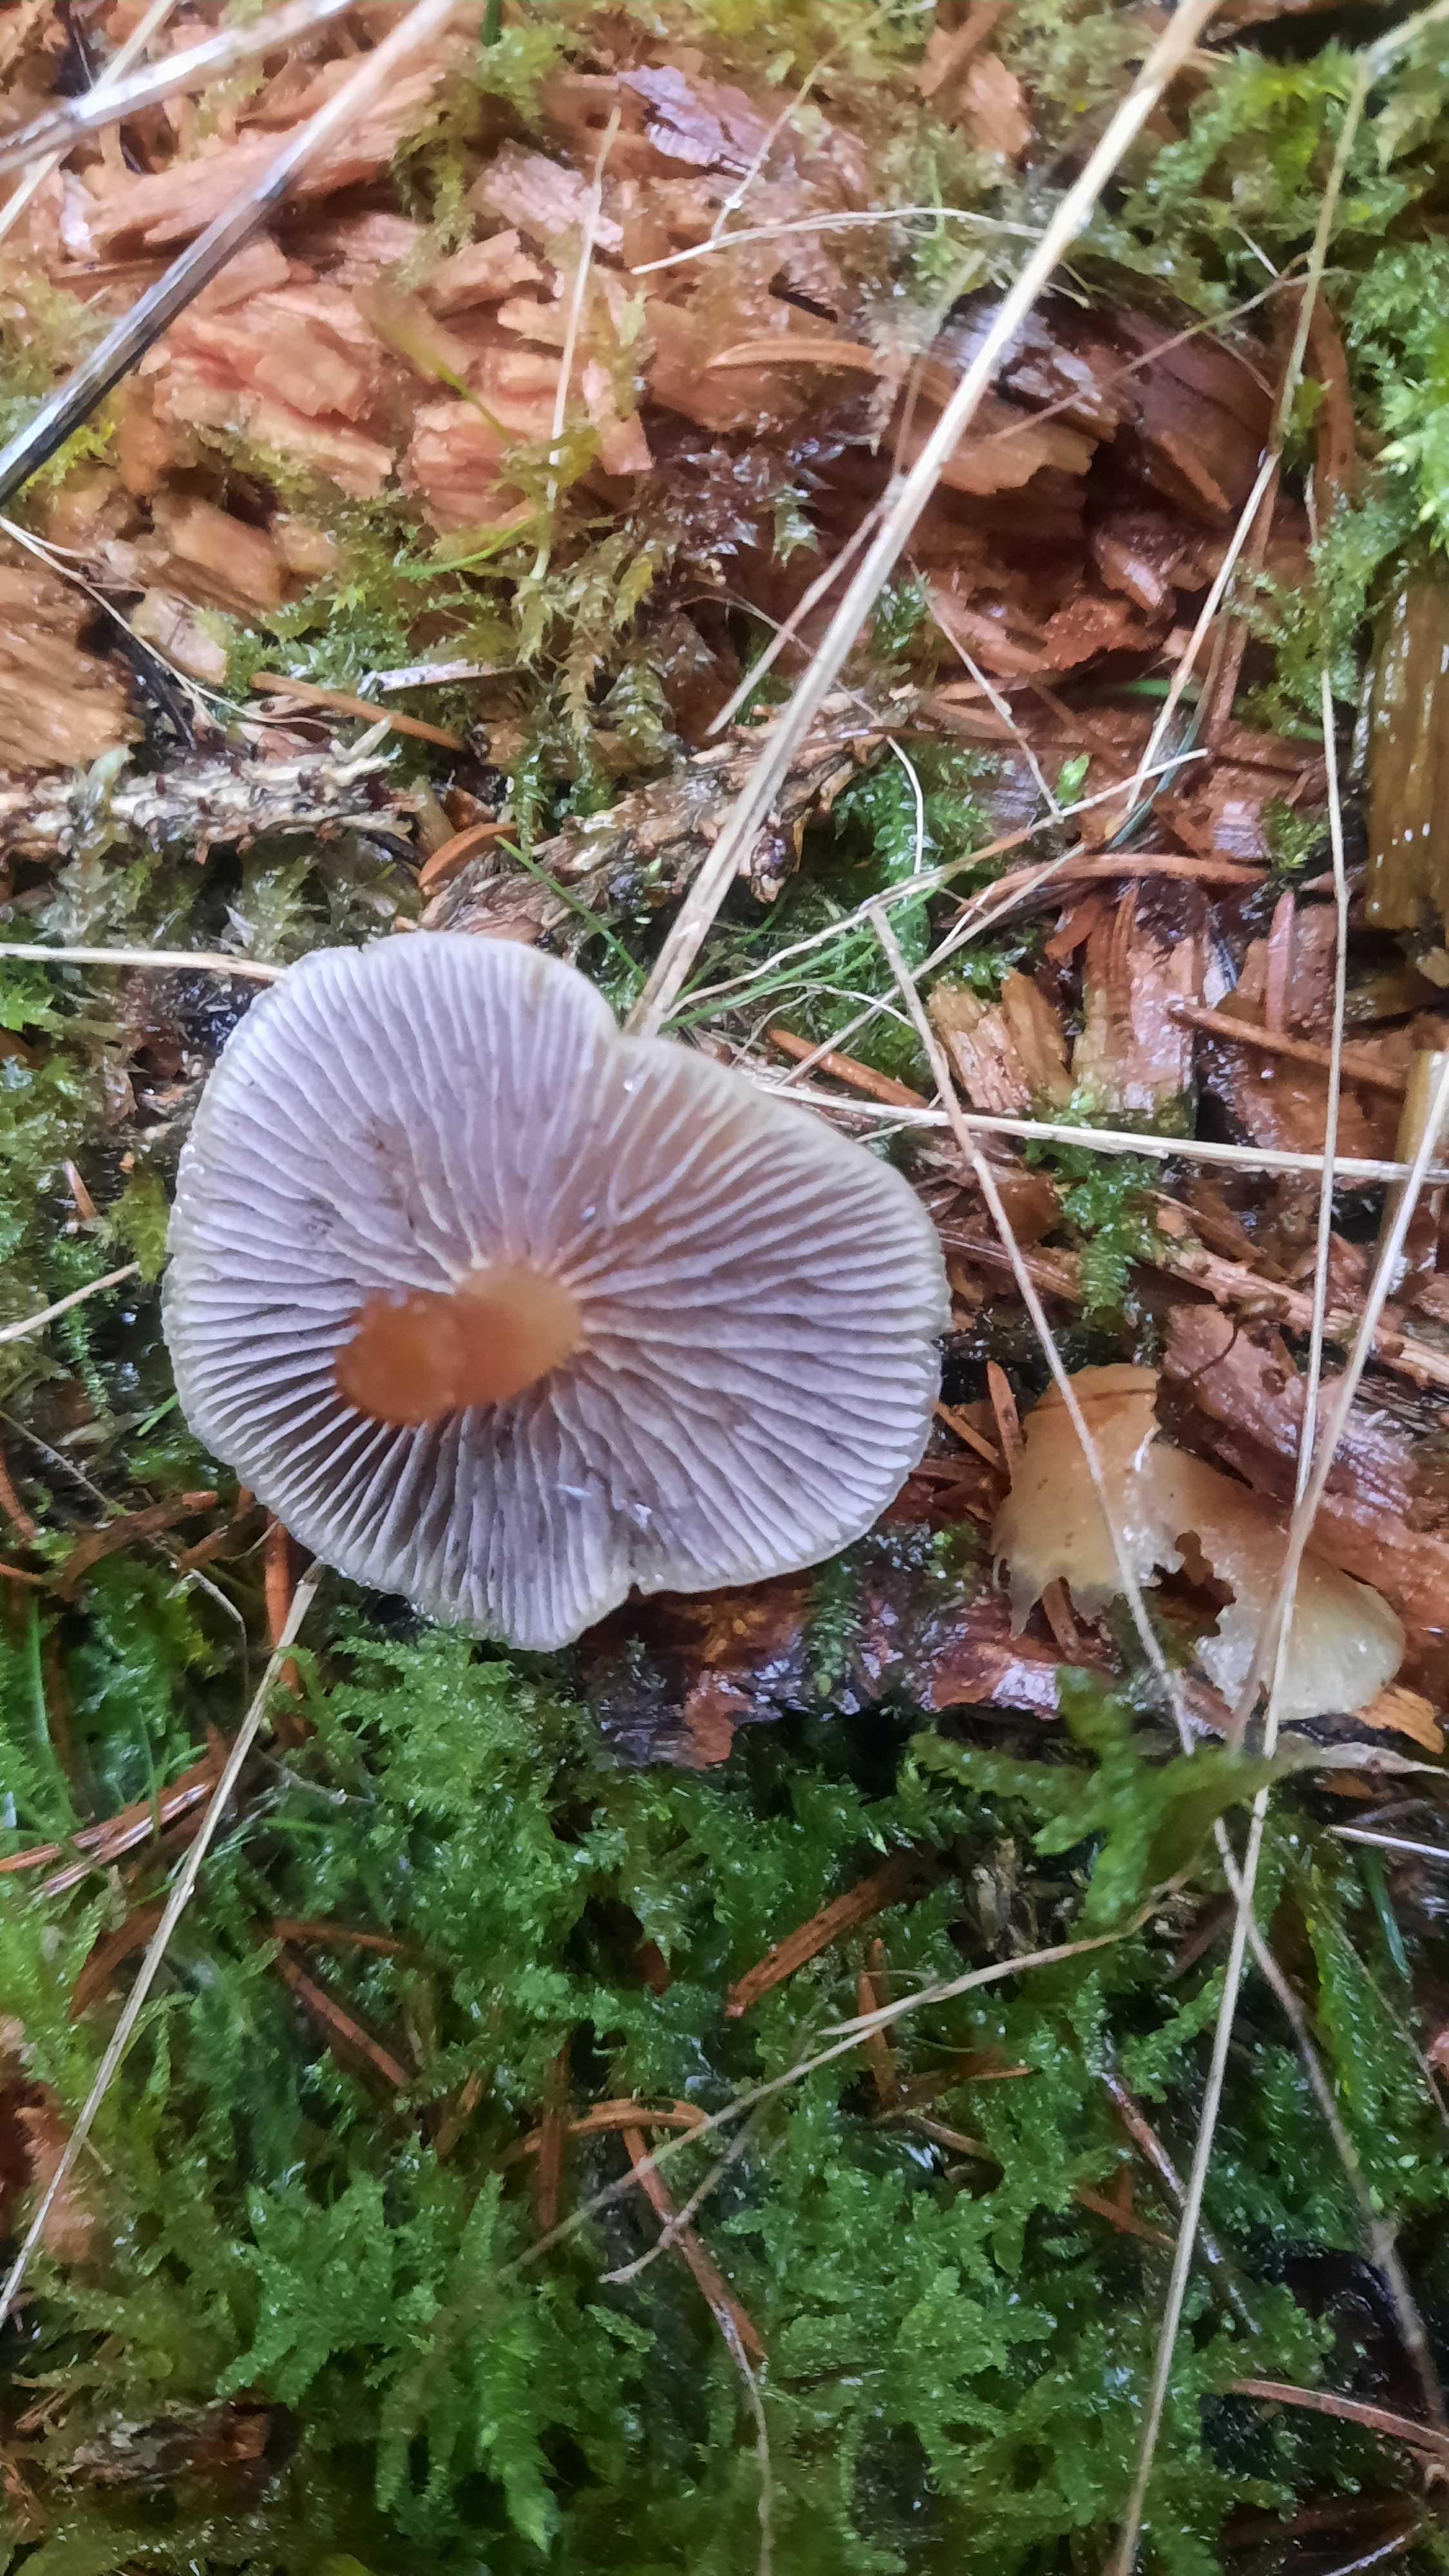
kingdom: Fungi
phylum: Basidiomycota
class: Agaricomycetes
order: Agaricales
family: Strophariaceae
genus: Hypholoma
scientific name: Hypholoma capnoides
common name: gran-svovlhat
